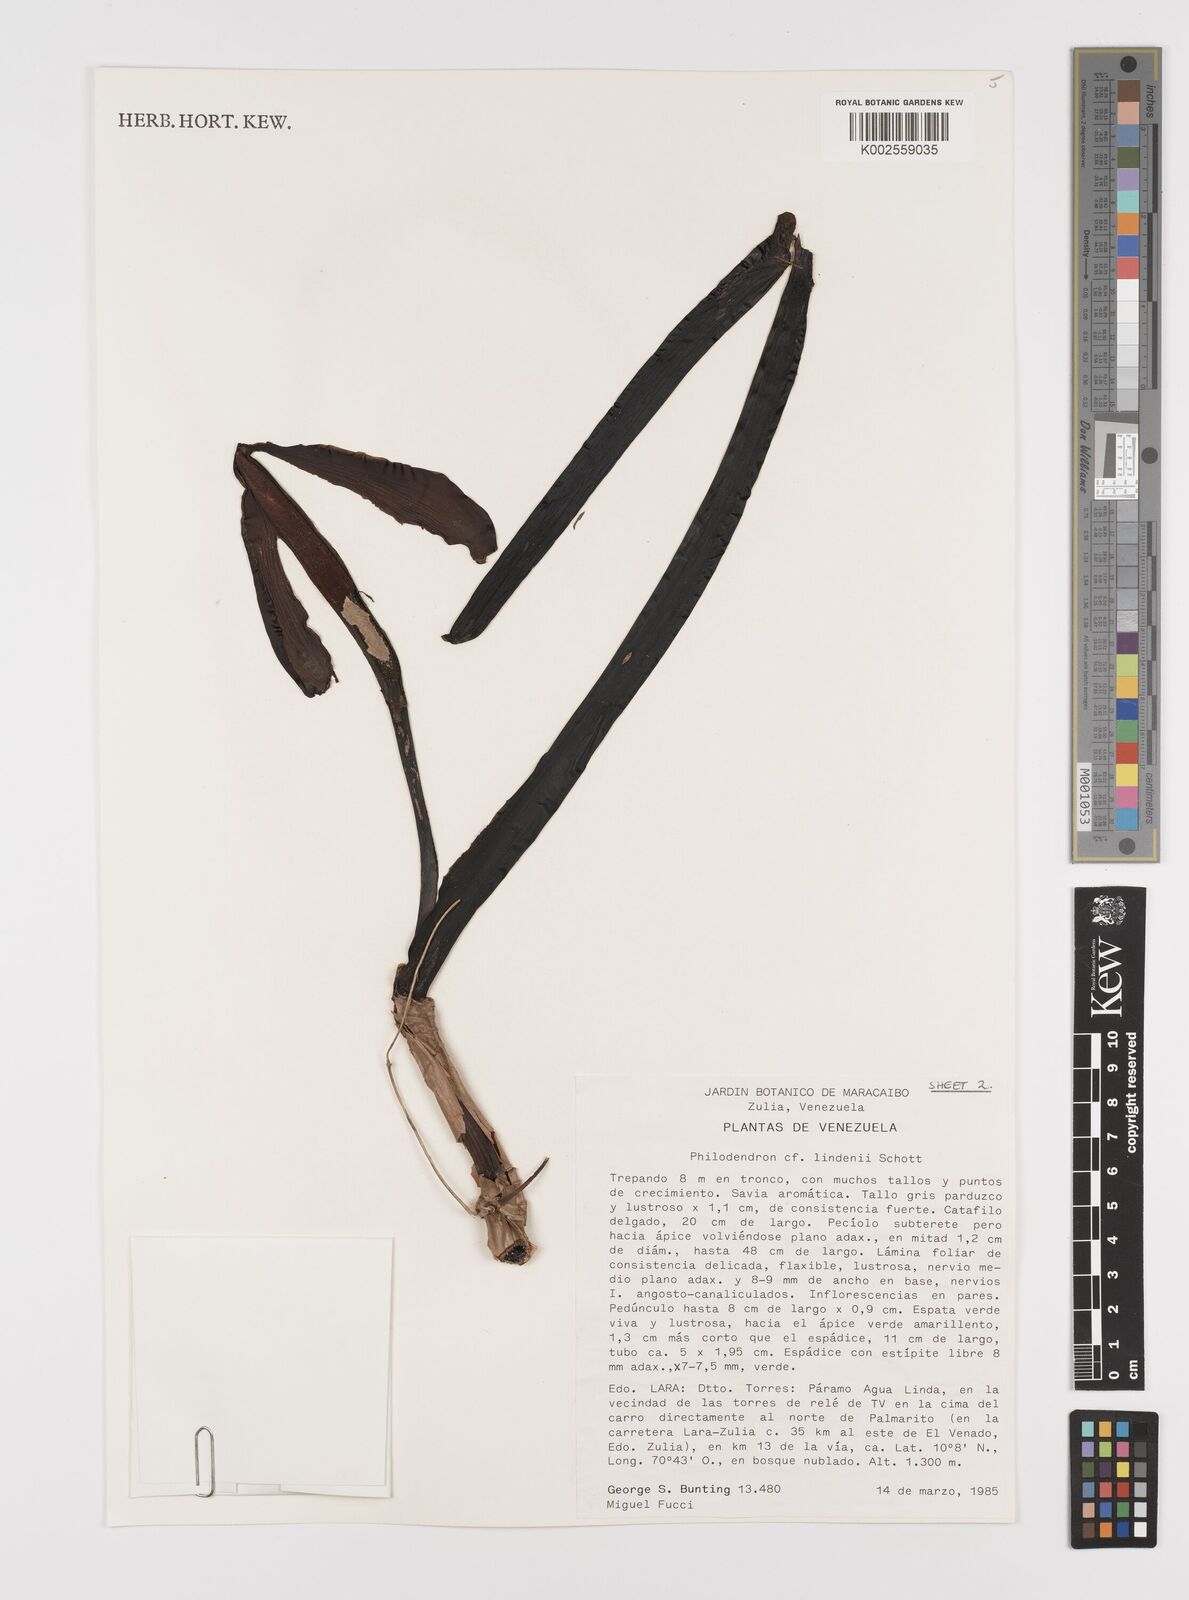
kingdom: Plantae
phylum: Tracheophyta
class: Liliopsida
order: Alismatales
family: Araceae
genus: Philodendron
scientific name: Philodendron lindenii
